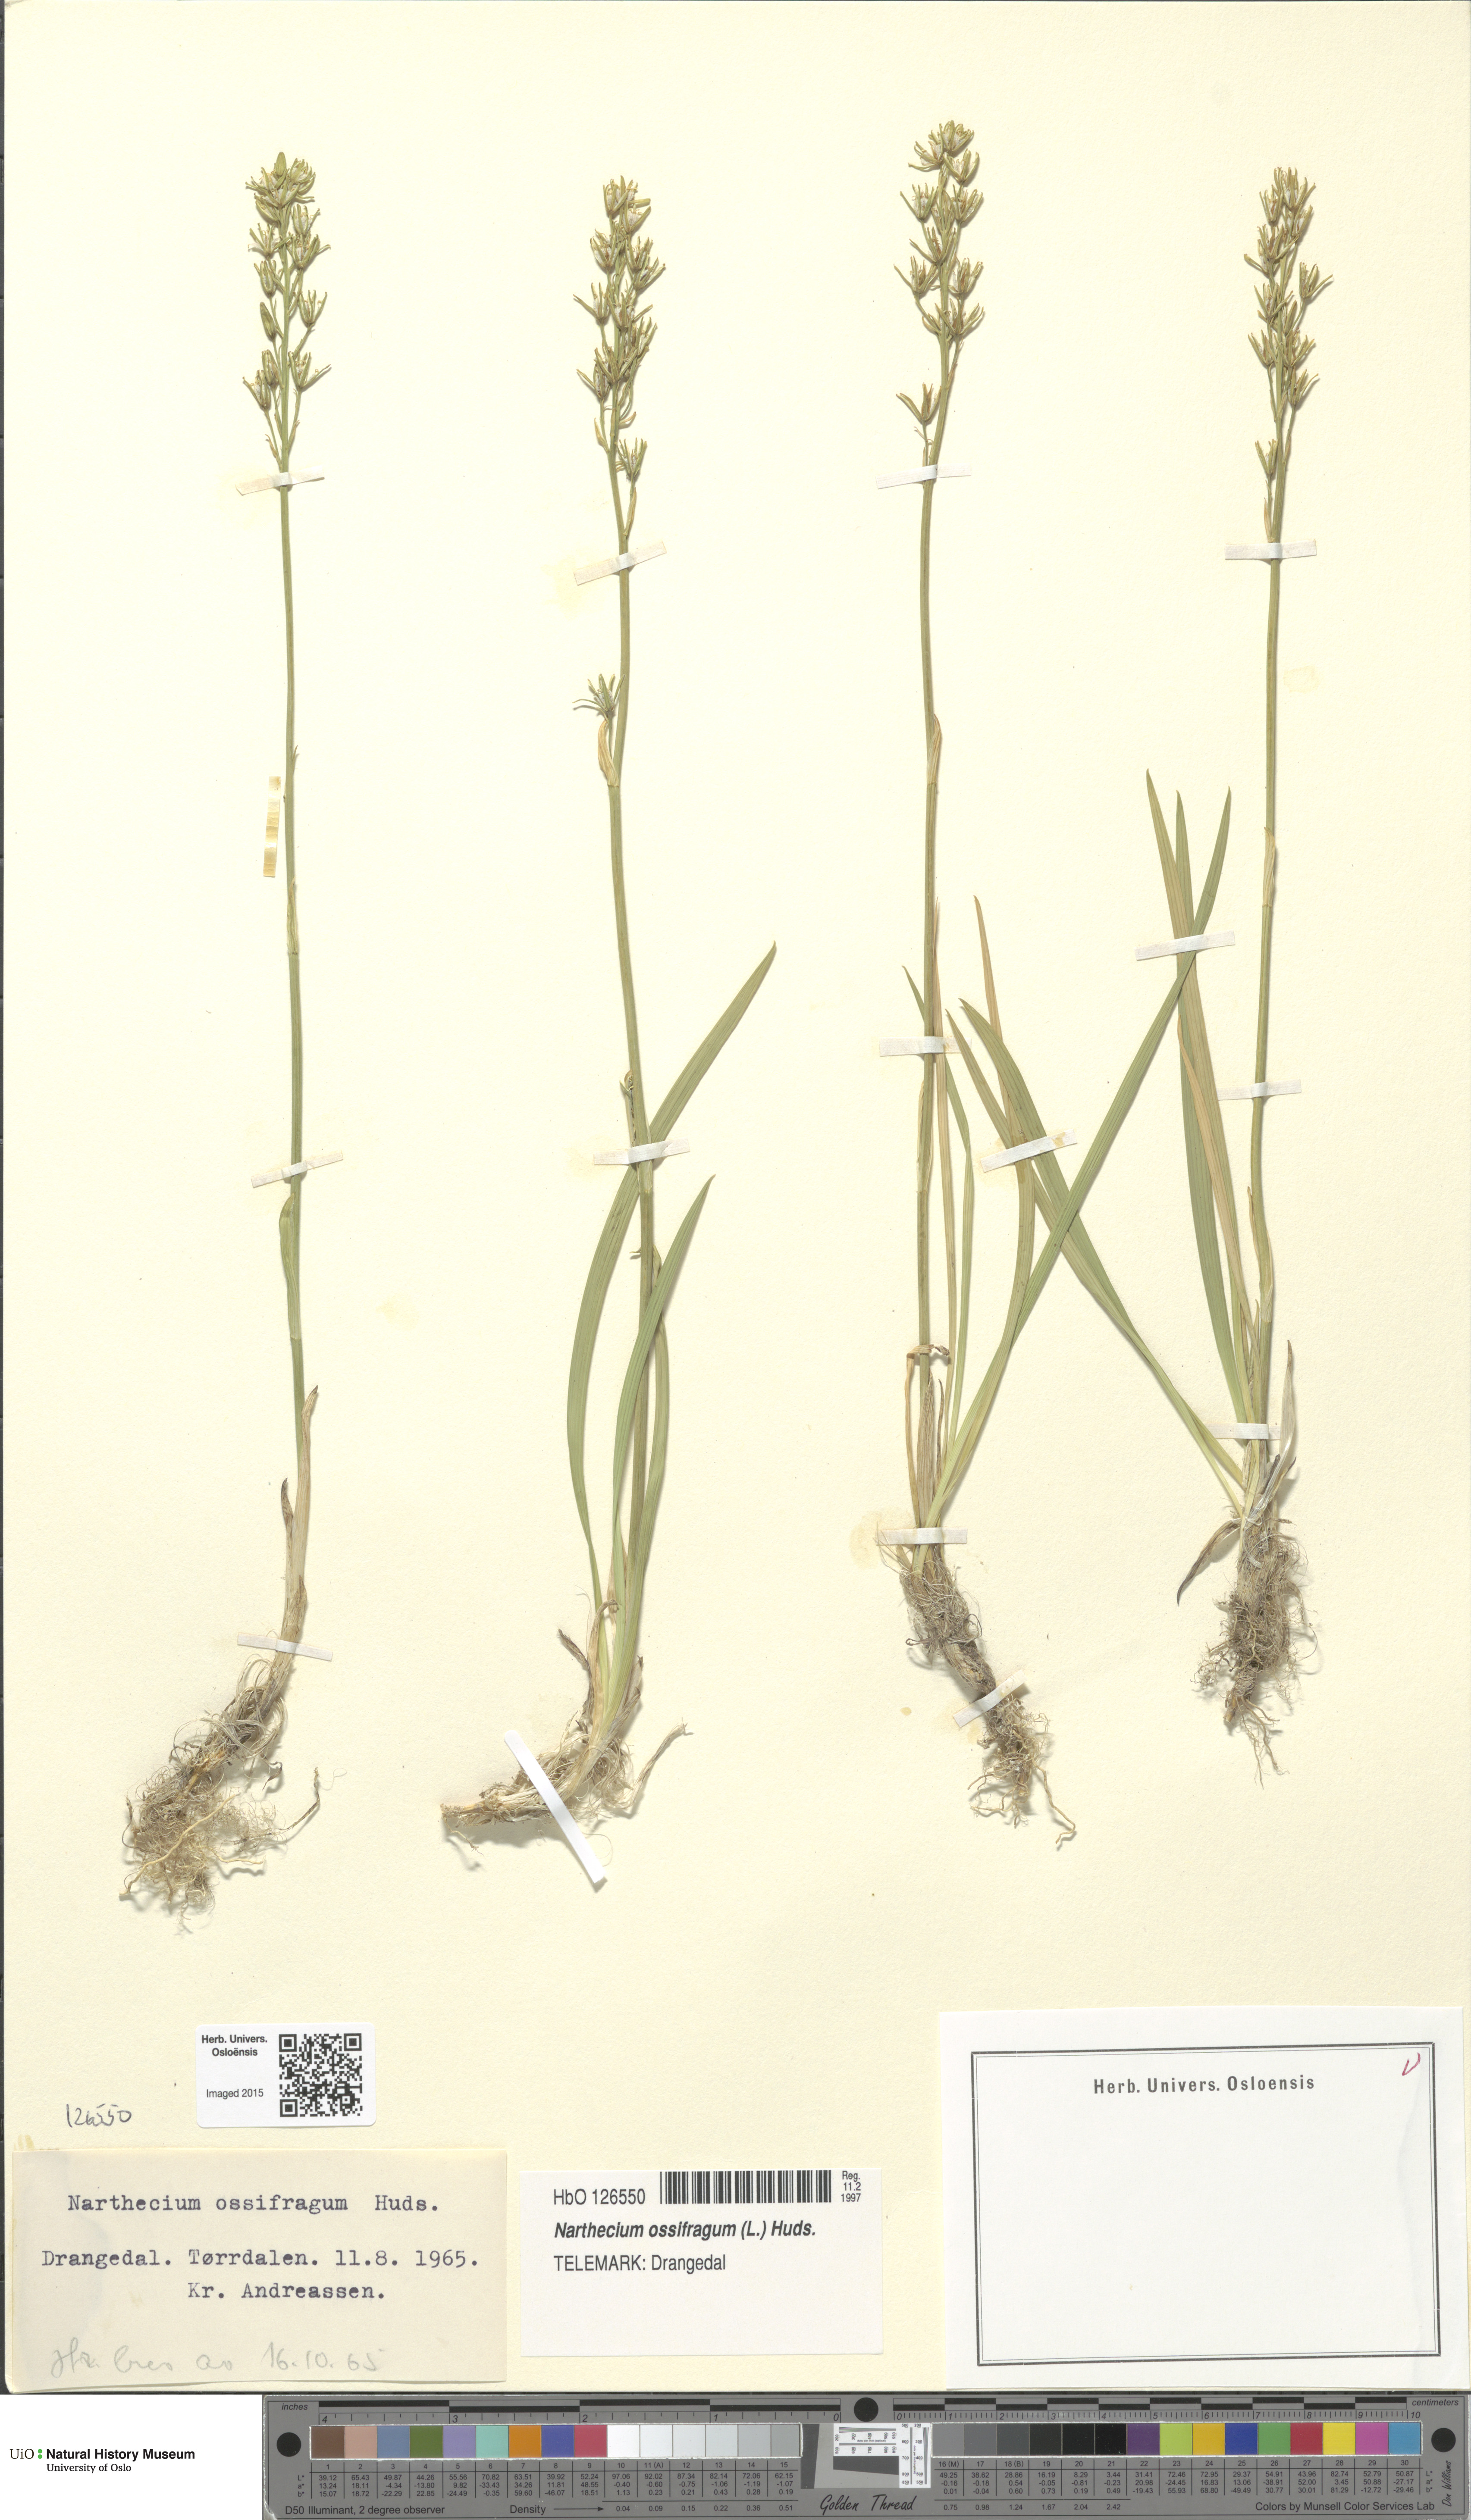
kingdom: Plantae
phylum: Tracheophyta
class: Liliopsida
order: Dioscoreales
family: Nartheciaceae
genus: Narthecium
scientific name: Narthecium ossifragum
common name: Bog asphodel
